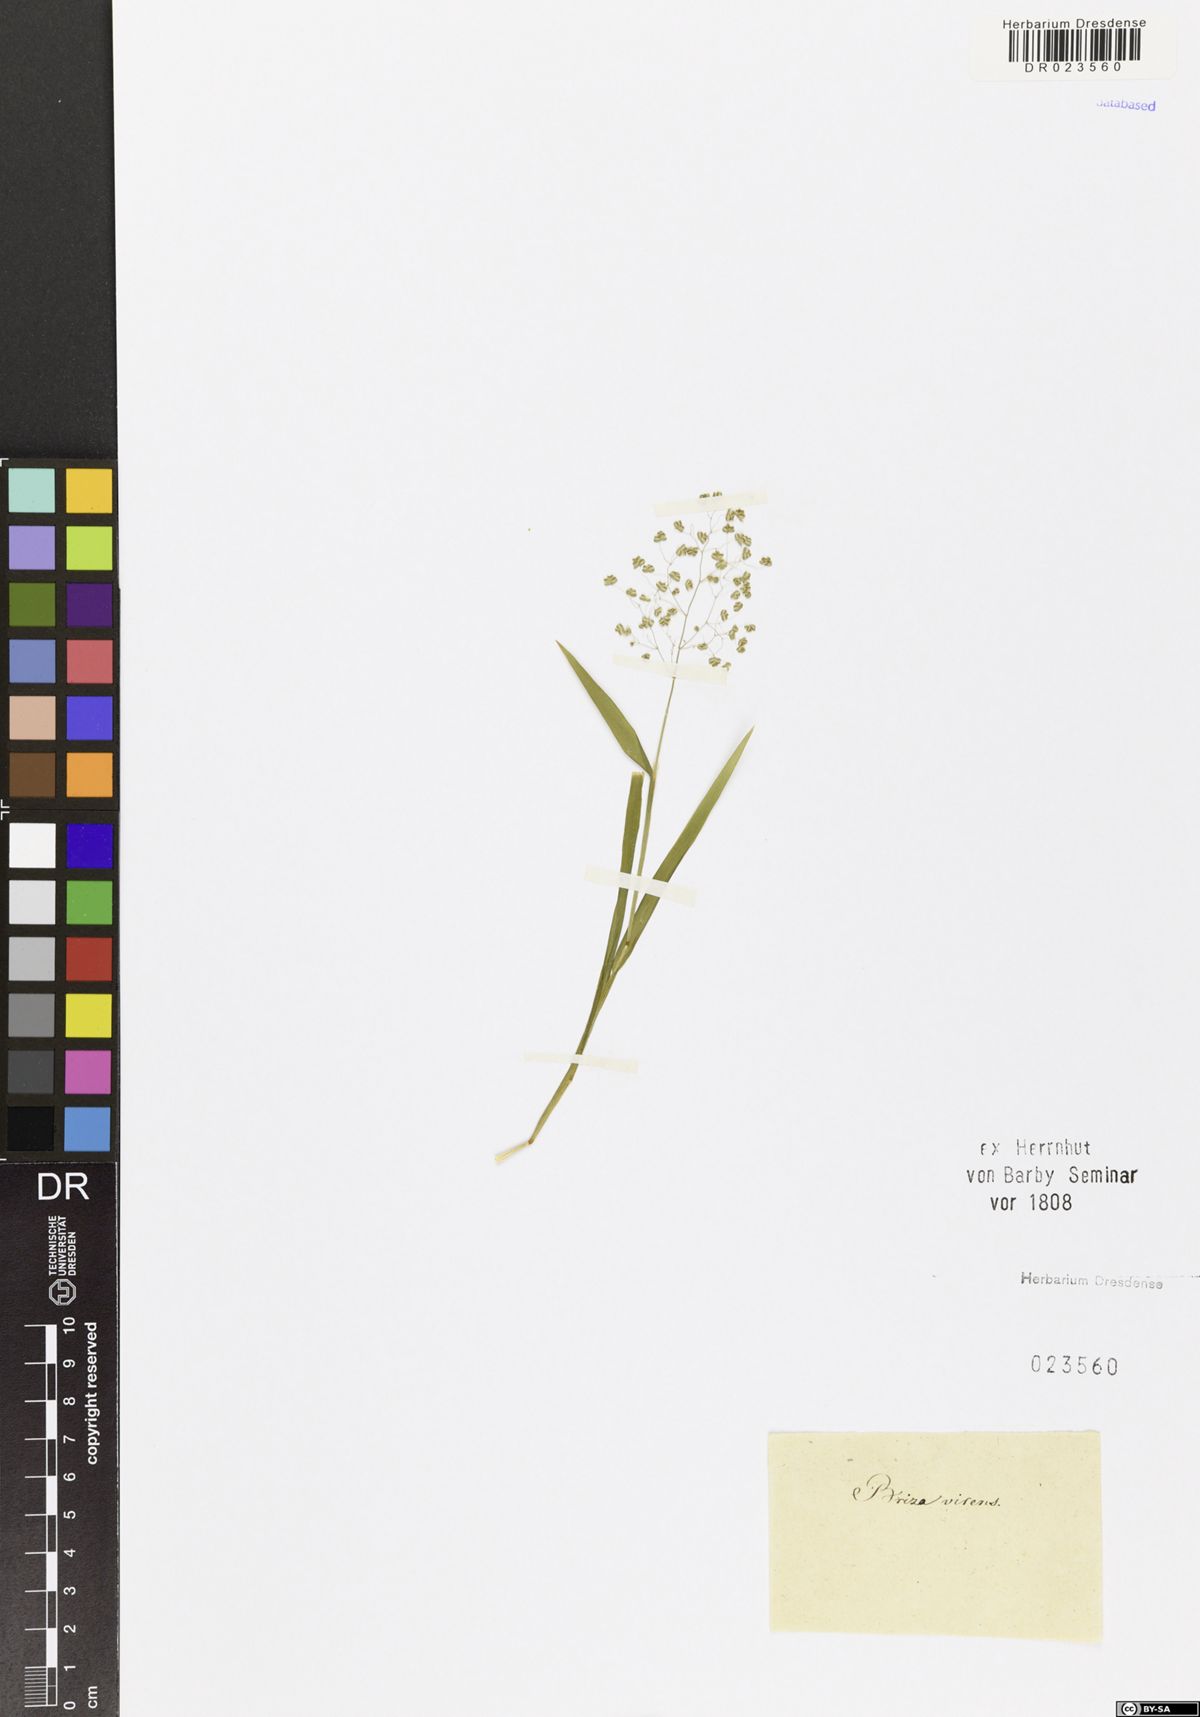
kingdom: Plantae
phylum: Tracheophyta
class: Liliopsida
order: Poales
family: Poaceae
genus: Briza
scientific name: Briza minor
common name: Lesser quaking-grass
